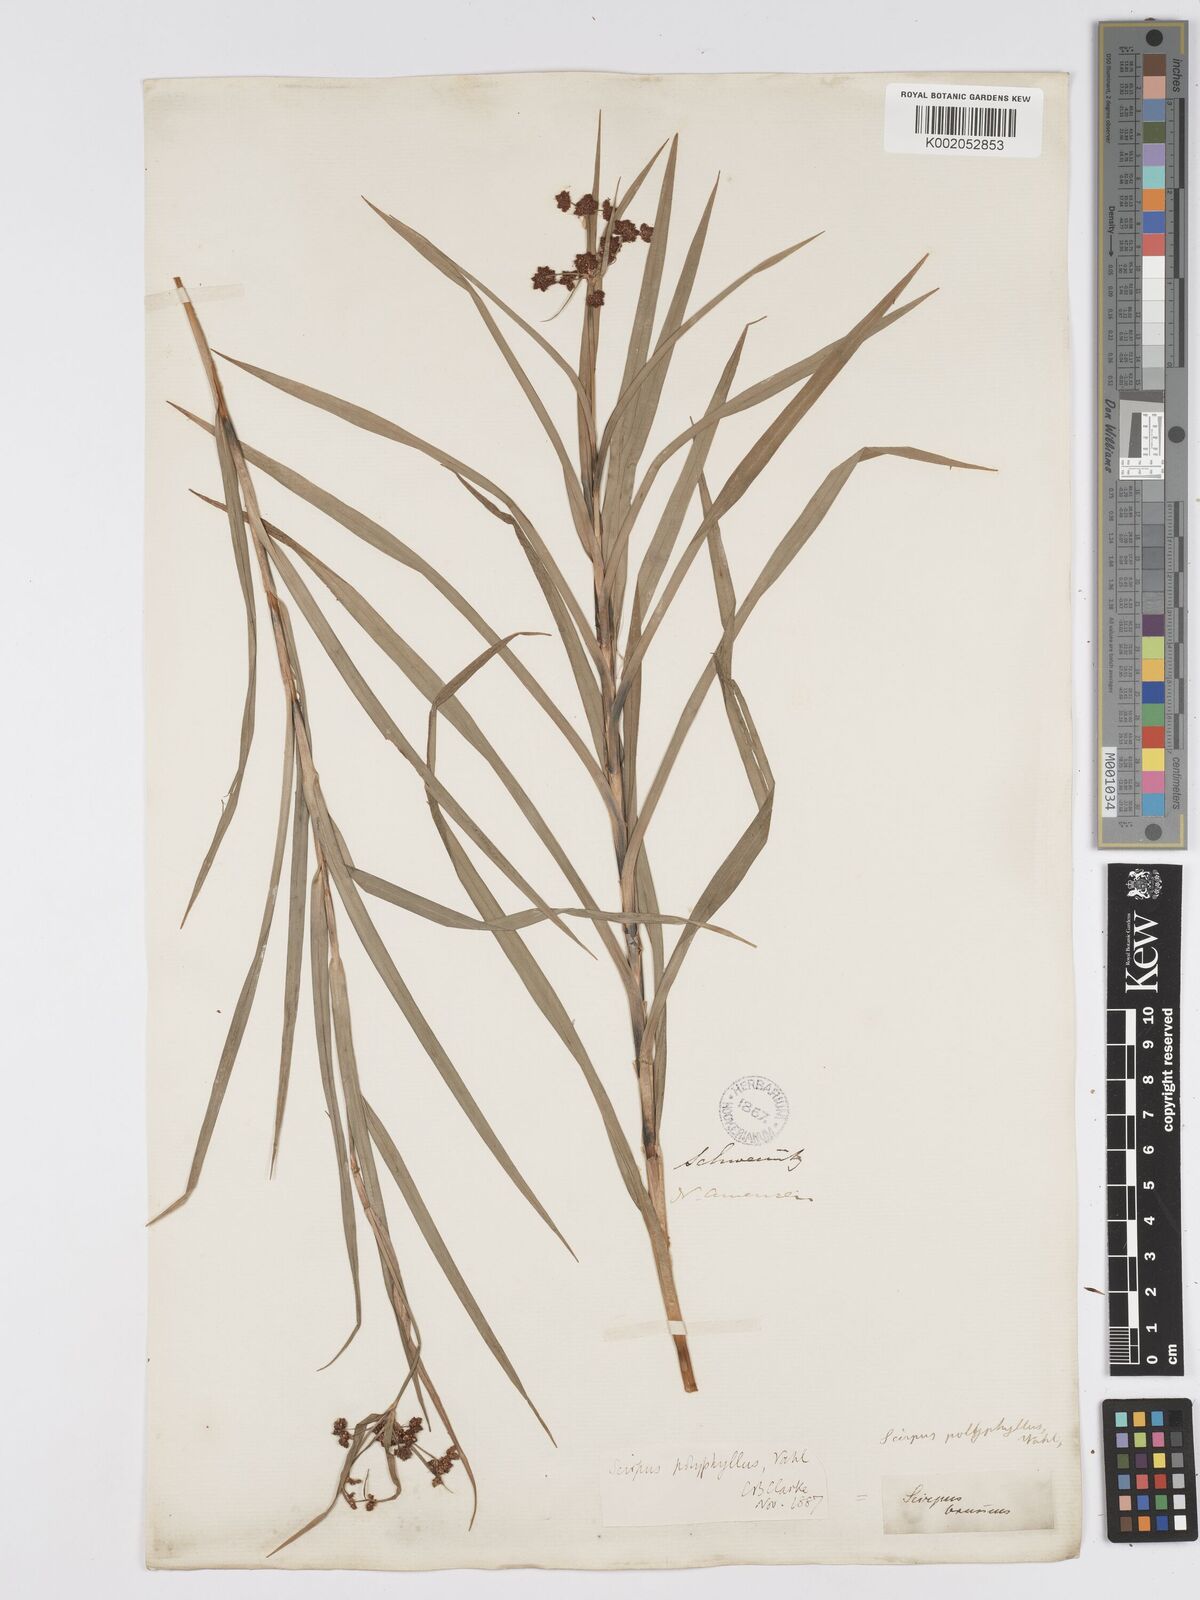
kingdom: Plantae
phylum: Tracheophyta
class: Liliopsida
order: Poales
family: Cyperaceae
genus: Scirpus
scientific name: Scirpus polyphyllus
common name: Leafy bulrush
